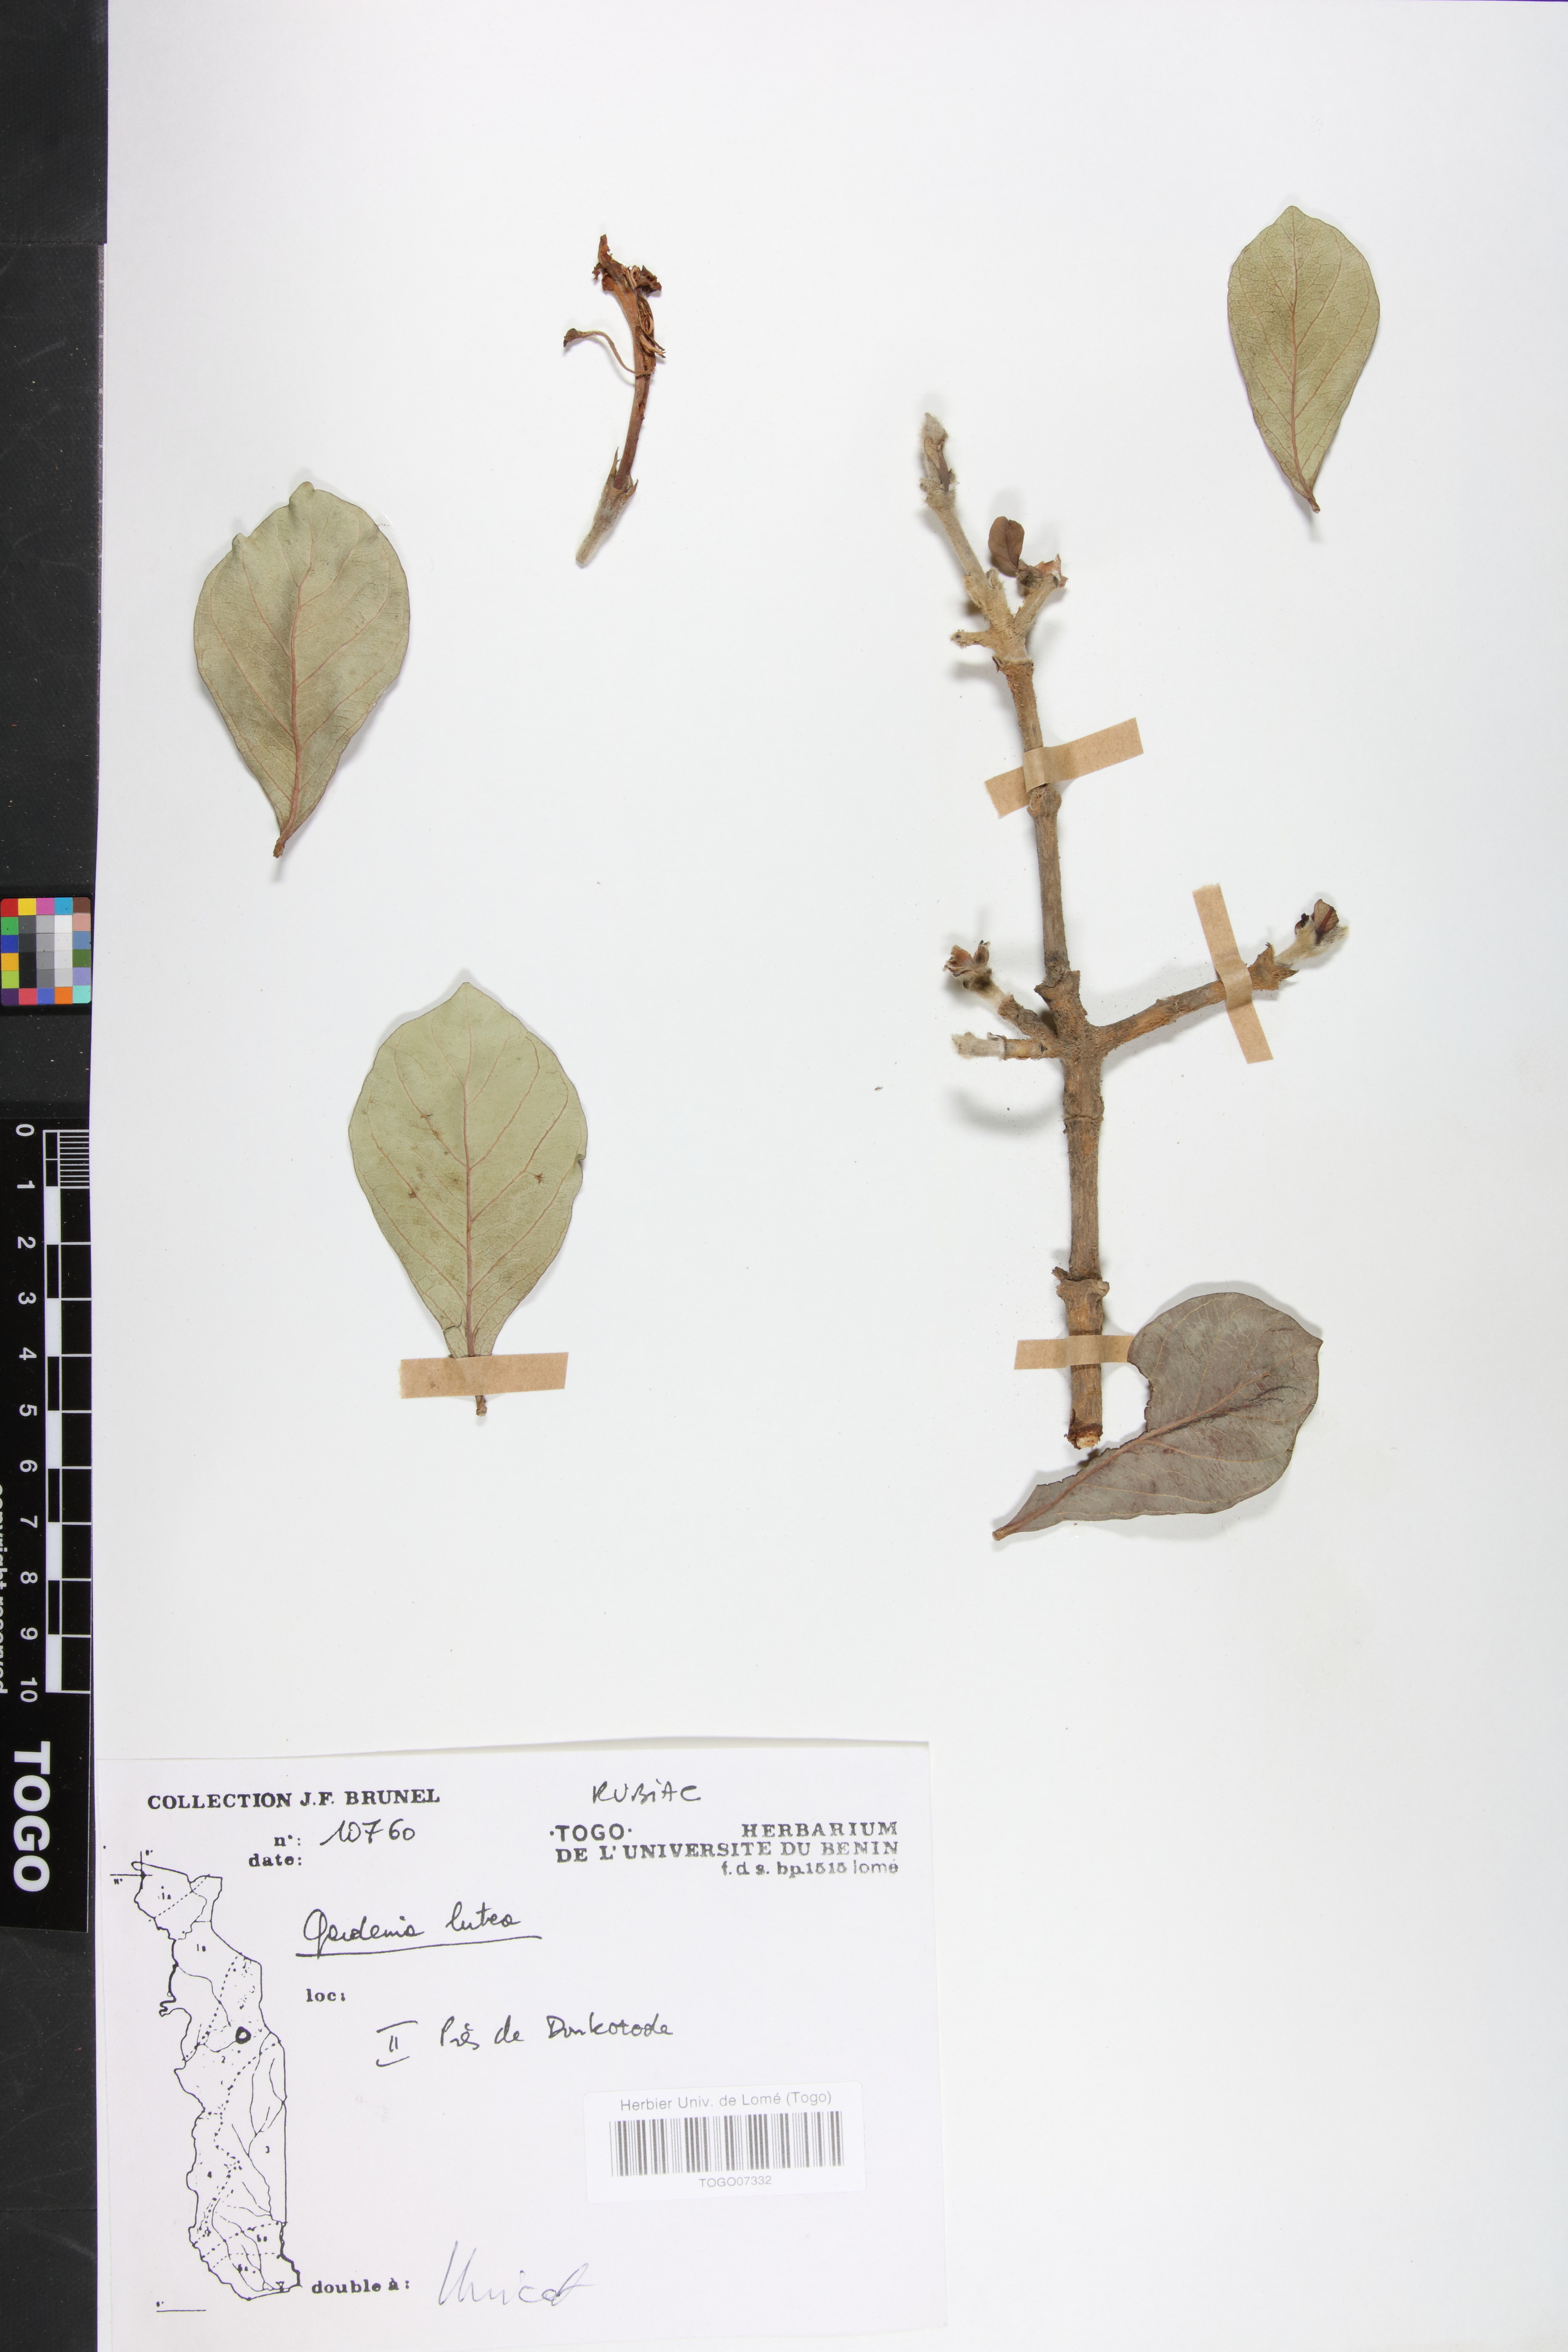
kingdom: Plantae
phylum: Tracheophyta
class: Magnoliopsida
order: Gentianales
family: Rubiaceae
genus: Gardenia
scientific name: Gardenia ternifolia
